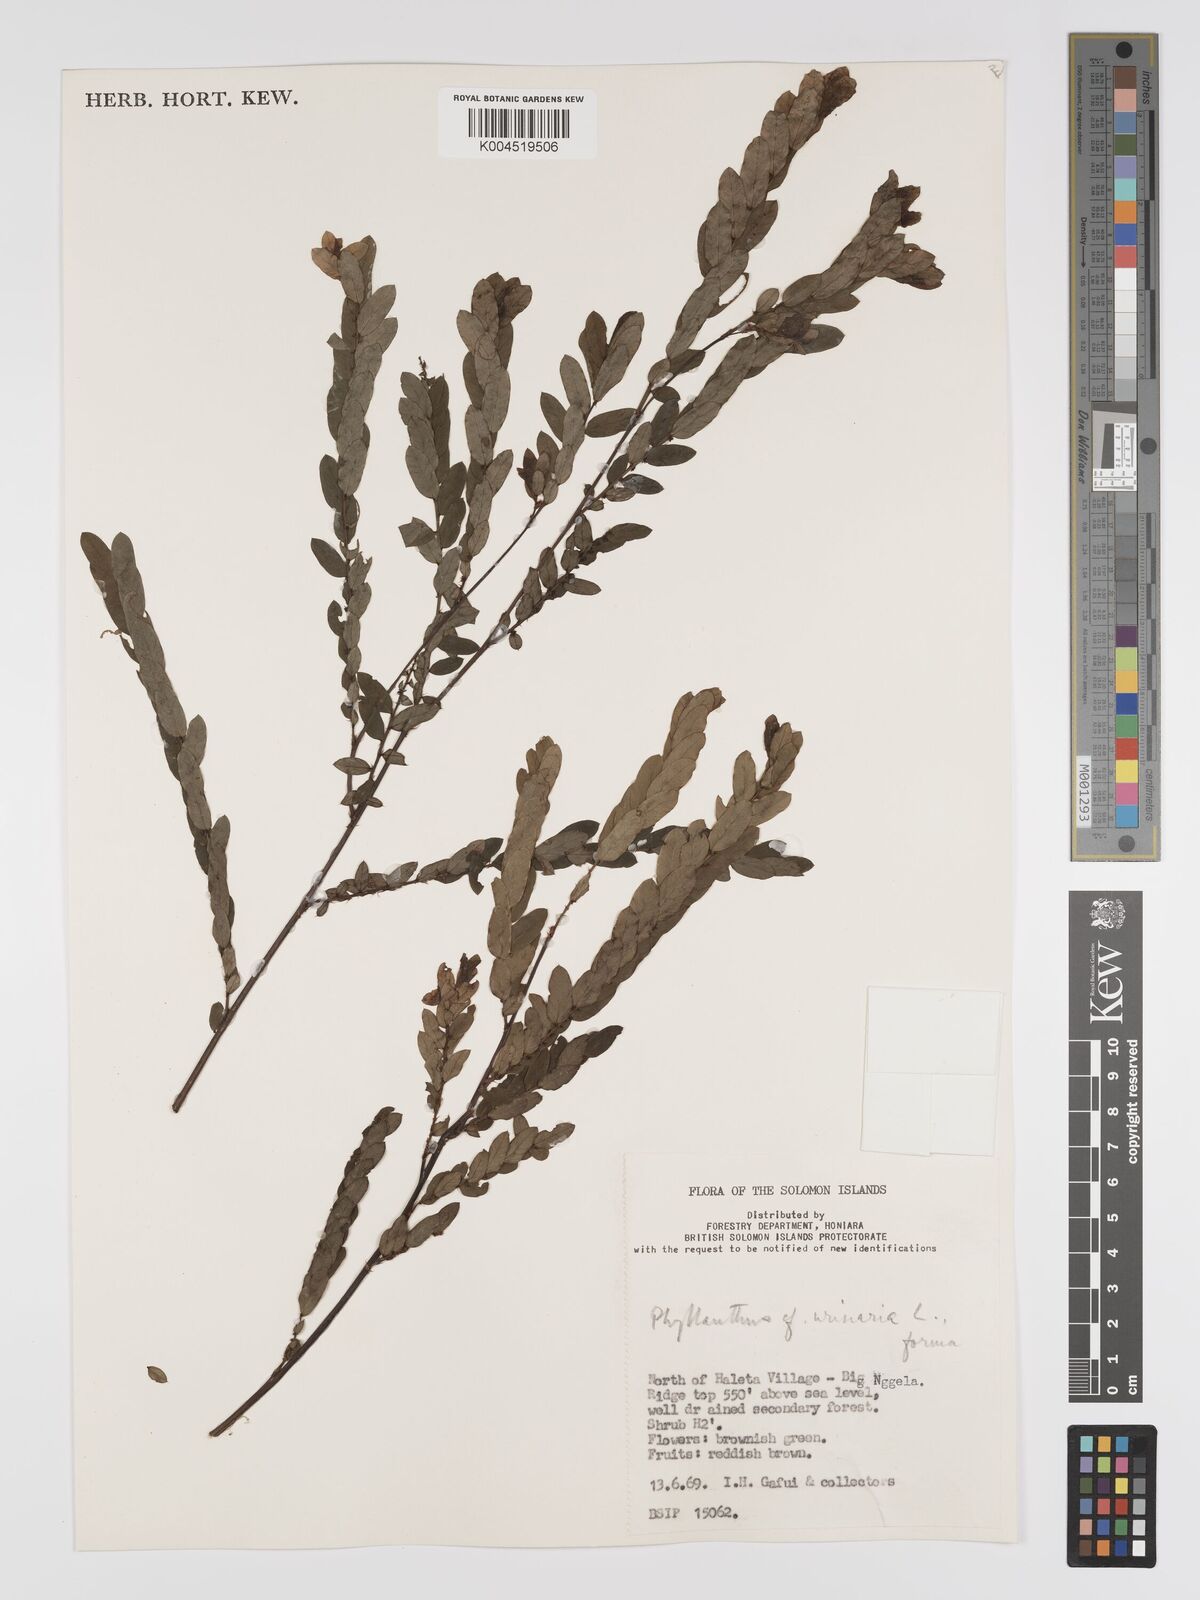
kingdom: Plantae
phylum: Tracheophyta
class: Magnoliopsida
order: Malpighiales
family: Phyllanthaceae
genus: Phyllanthus
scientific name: Phyllanthus urinaria
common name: Chamber bitter
